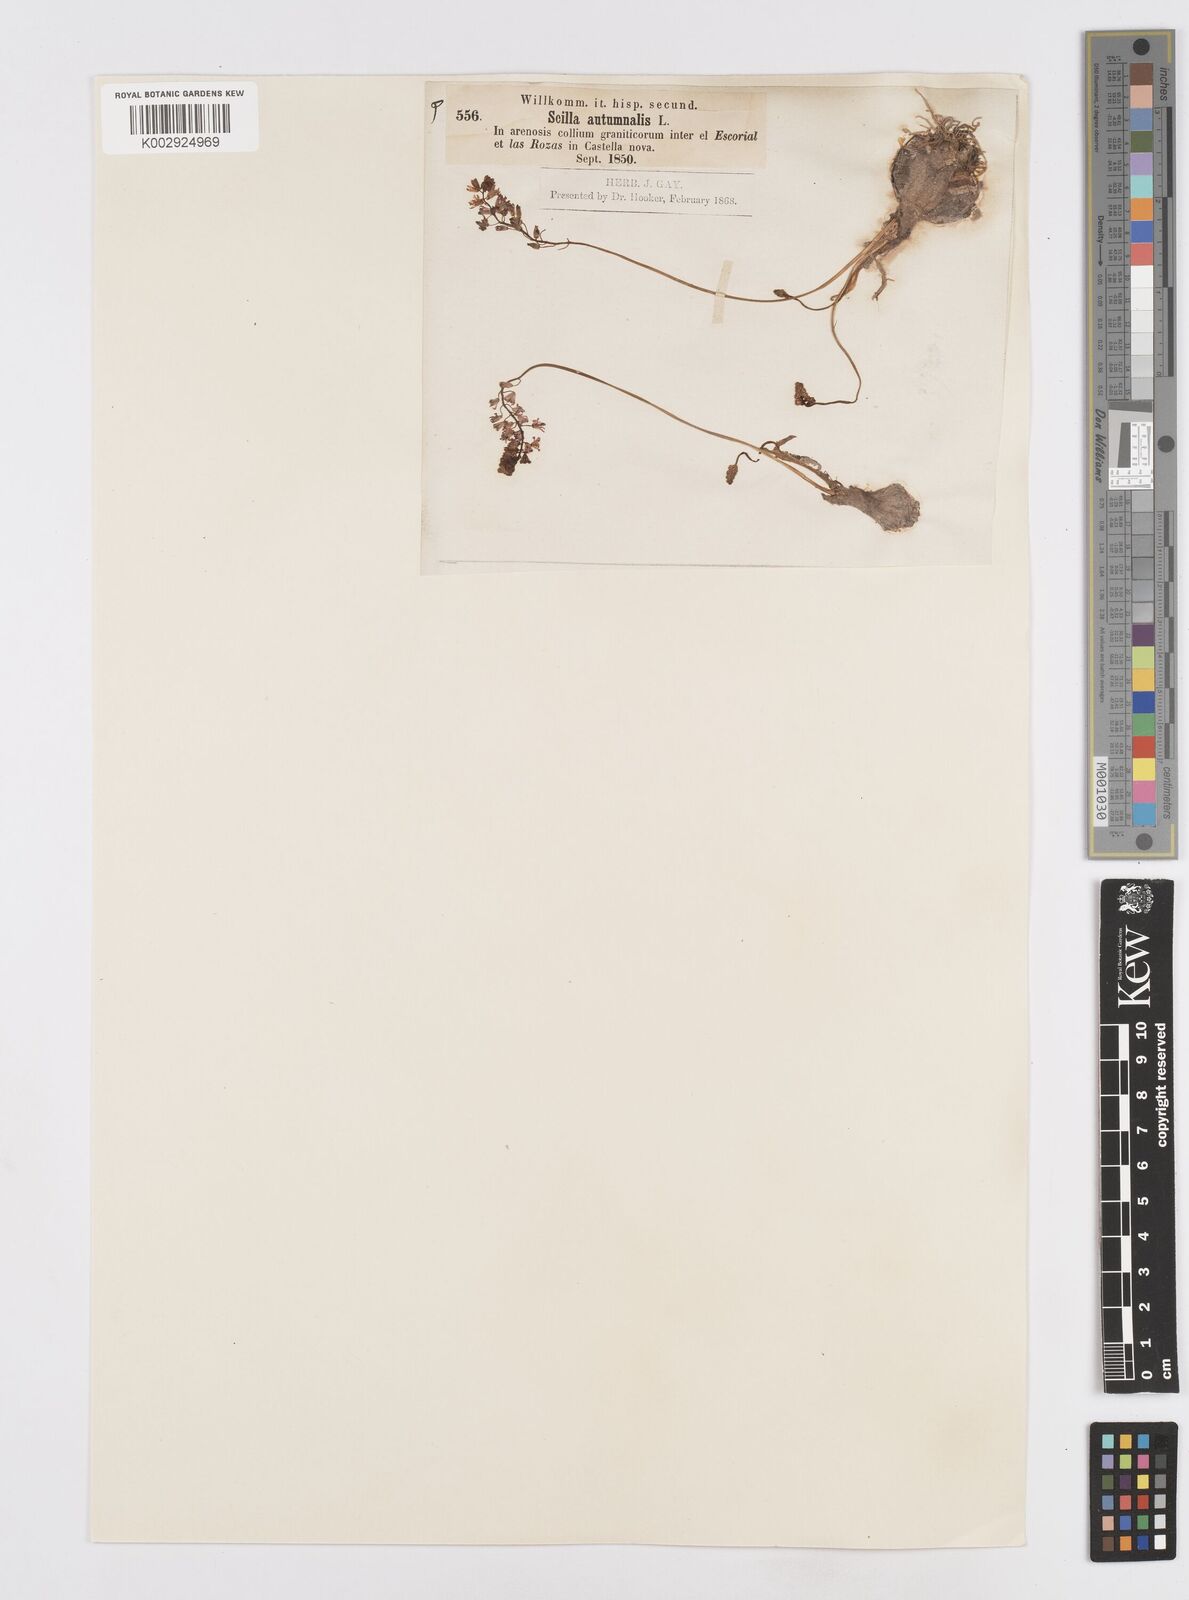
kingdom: Plantae
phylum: Tracheophyta
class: Liliopsida
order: Asparagales
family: Asparagaceae
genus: Prospero
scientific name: Prospero autumnale
